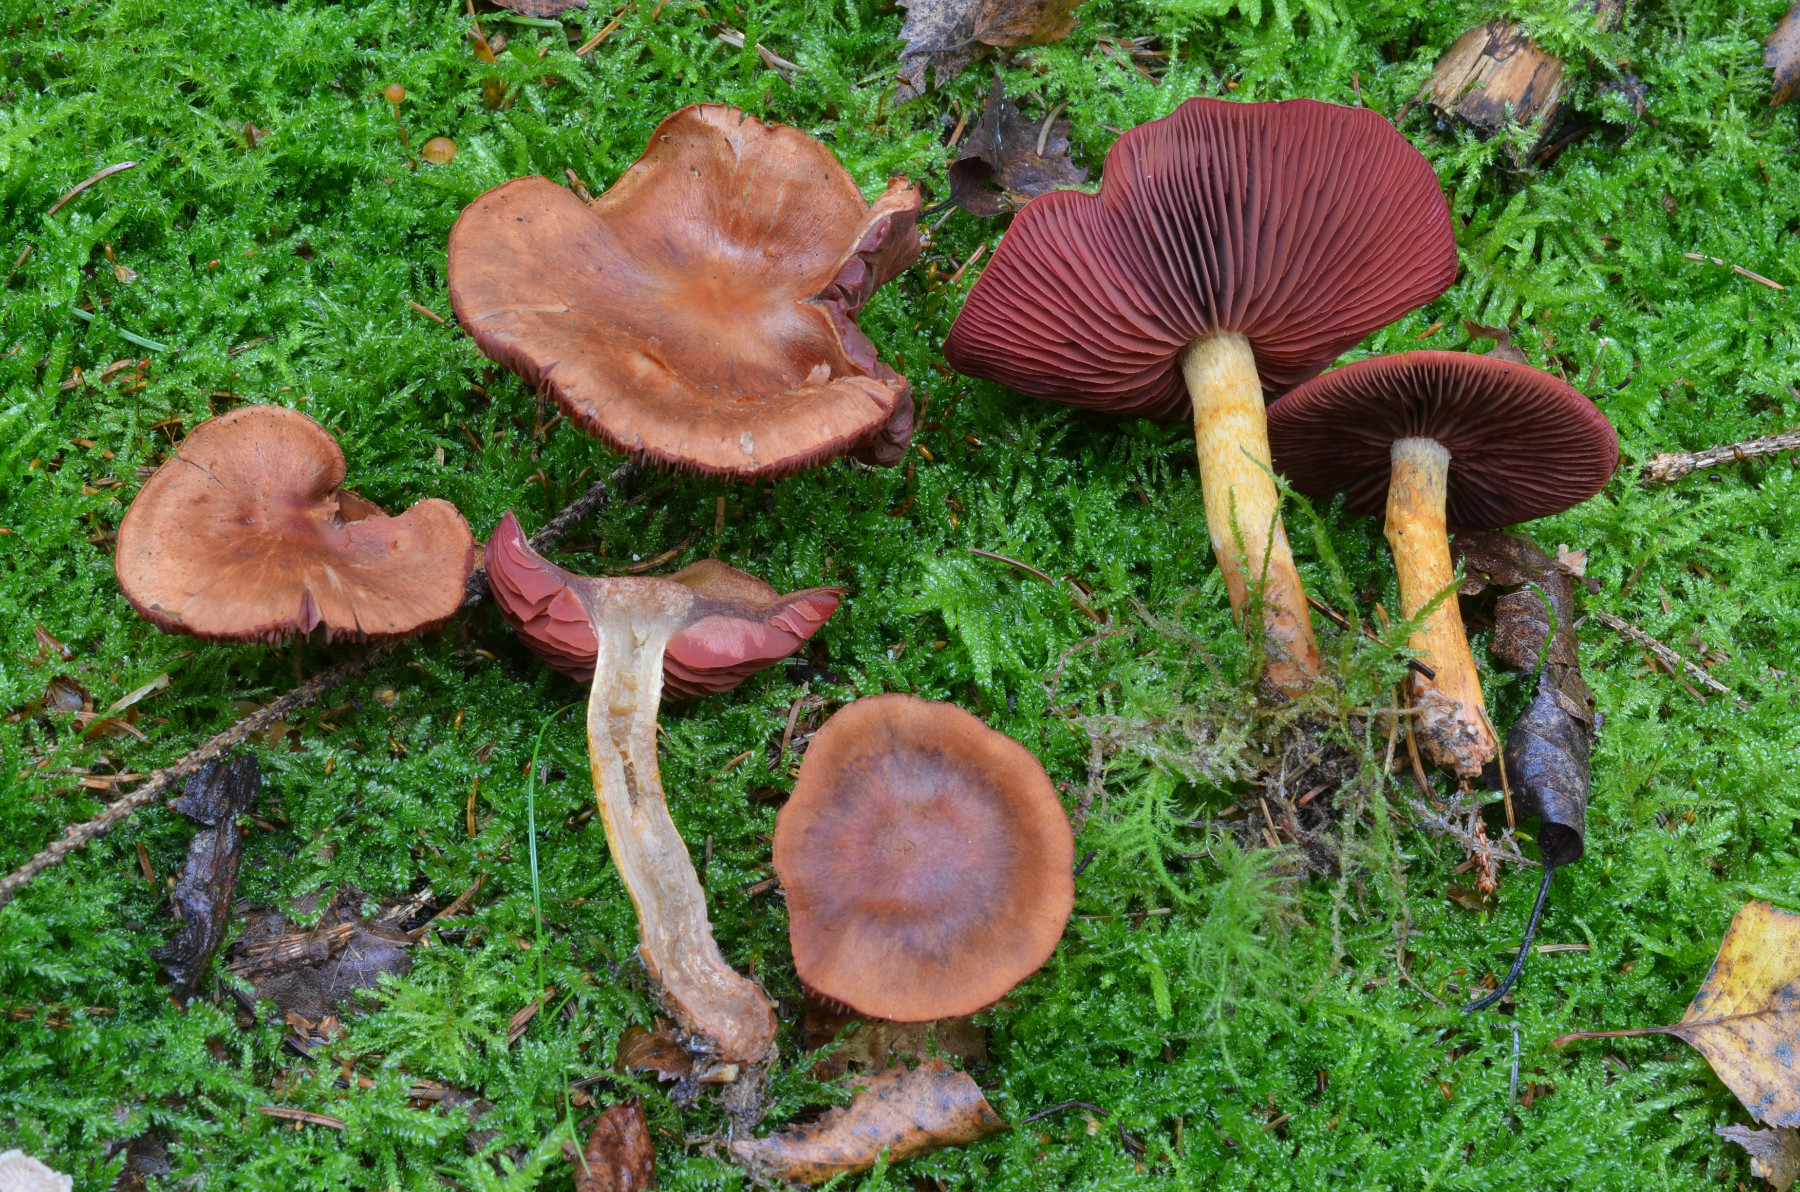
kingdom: Fungi
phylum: Basidiomycota
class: Agaricomycetes
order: Agaricales
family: Cortinariaceae
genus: Cortinarius
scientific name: Cortinarius purpureus
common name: brunrød slørhat
